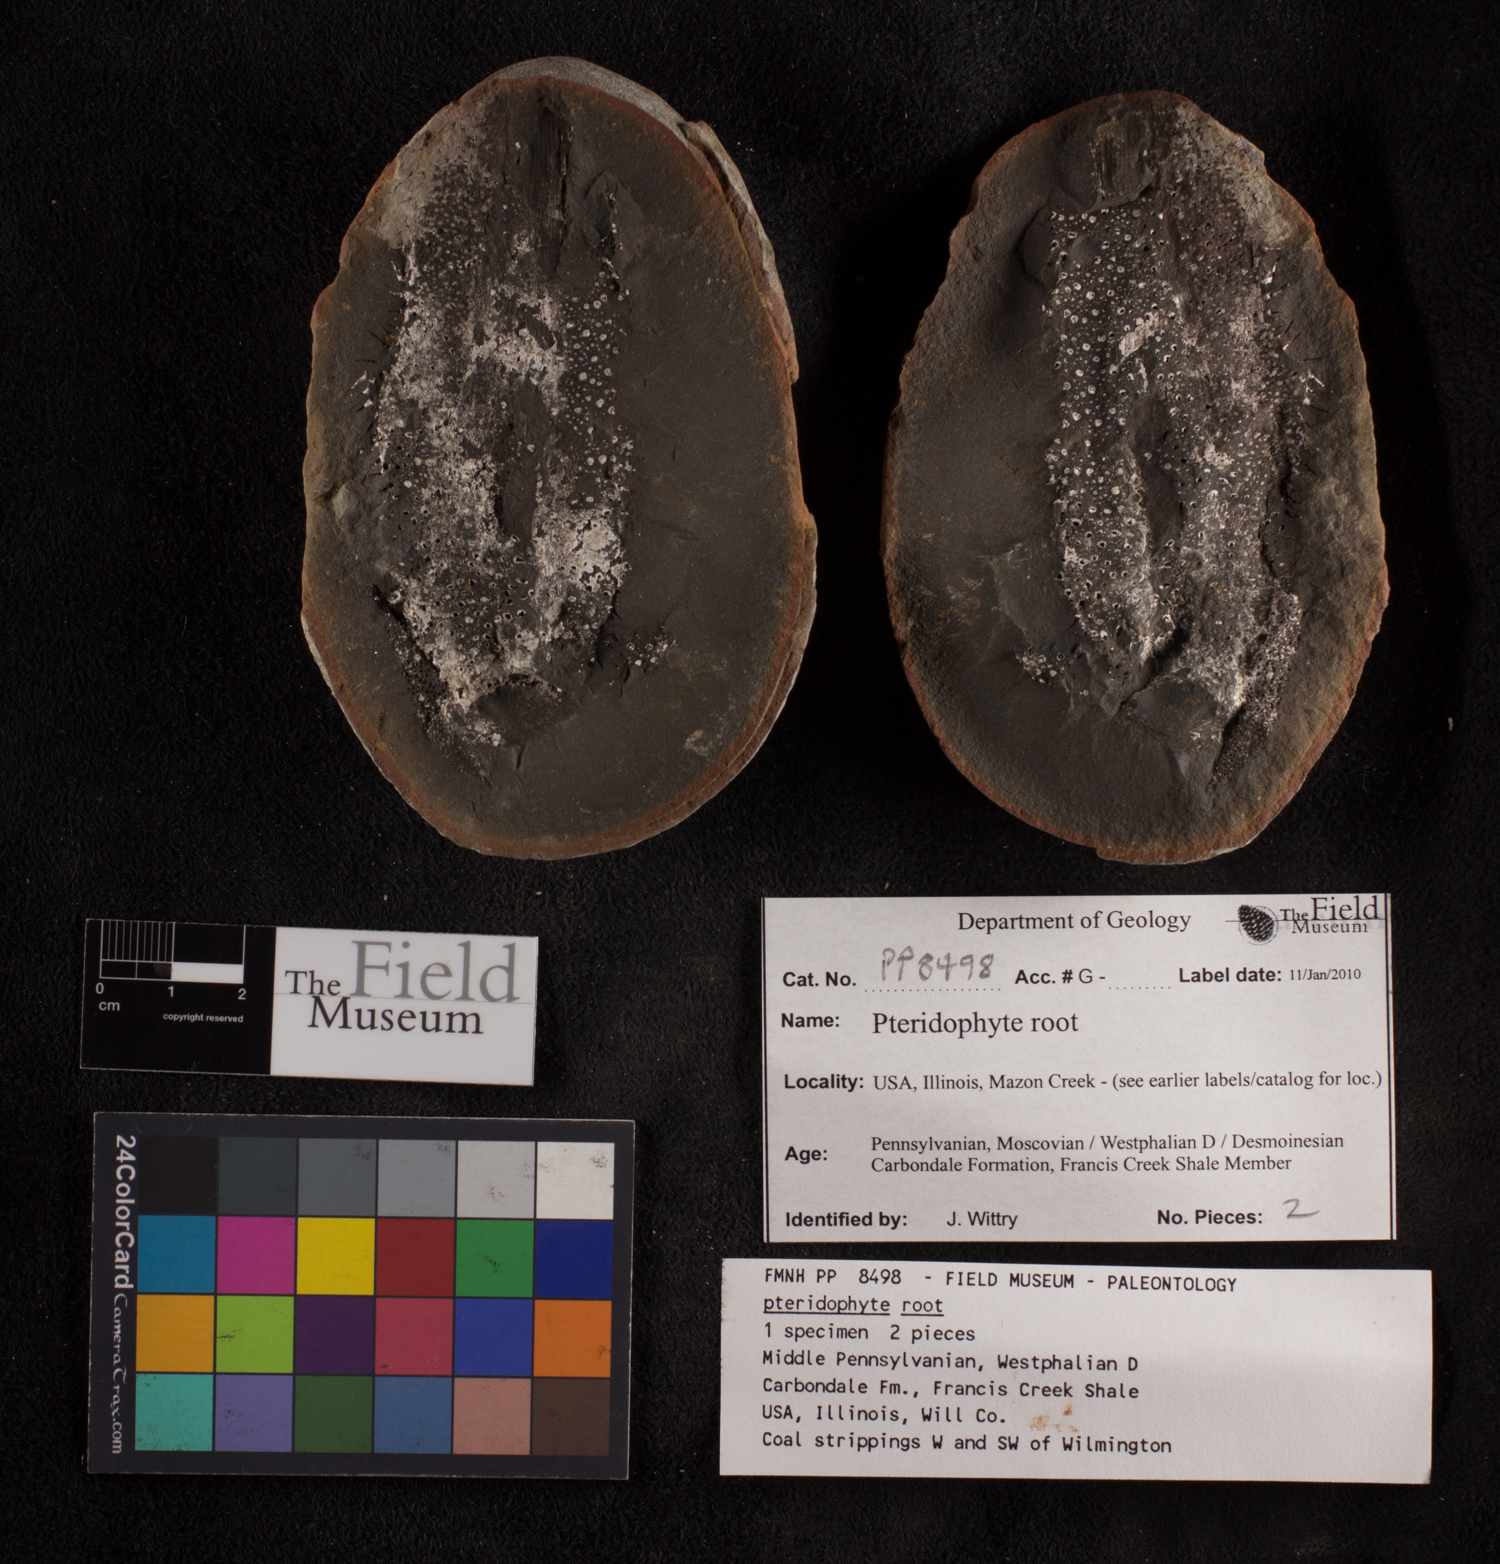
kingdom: Plantae
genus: Rhacophyllum
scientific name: Rhacophyllum
